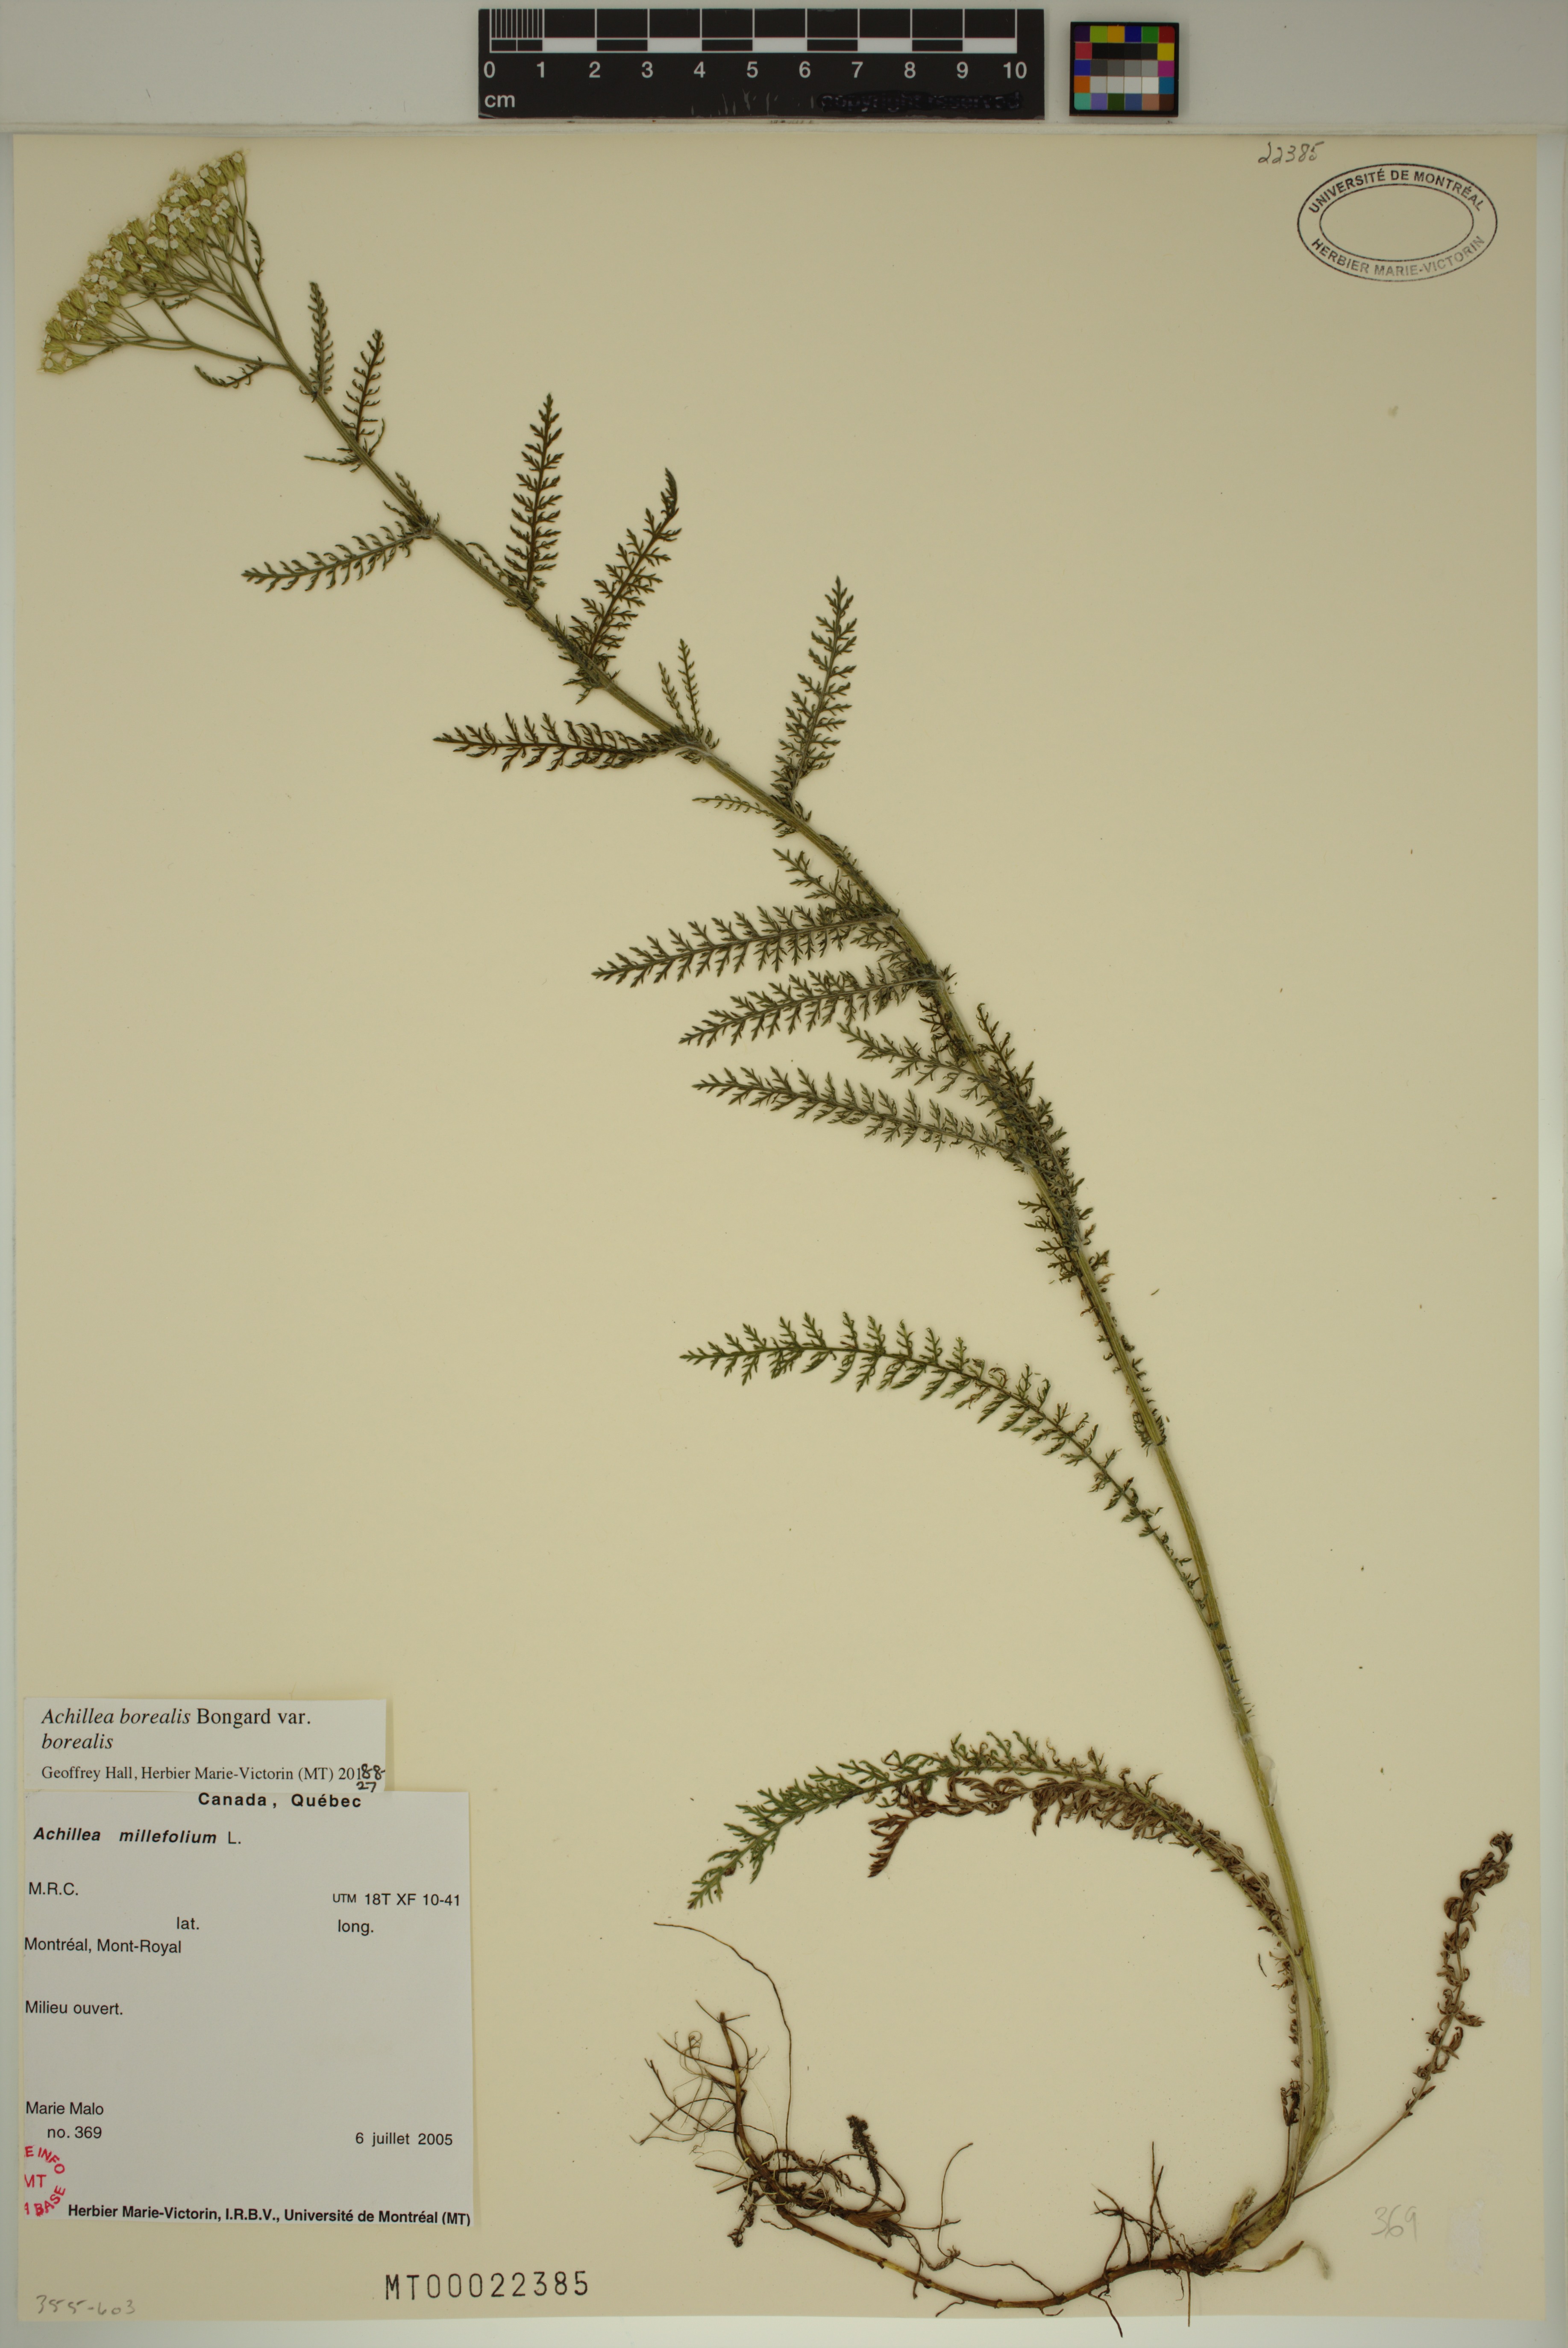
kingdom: Plantae
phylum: Tracheophyta
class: Magnoliopsida
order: Asterales
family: Asteraceae
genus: Achillea
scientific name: Achillea millefolium
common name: Yarrow
